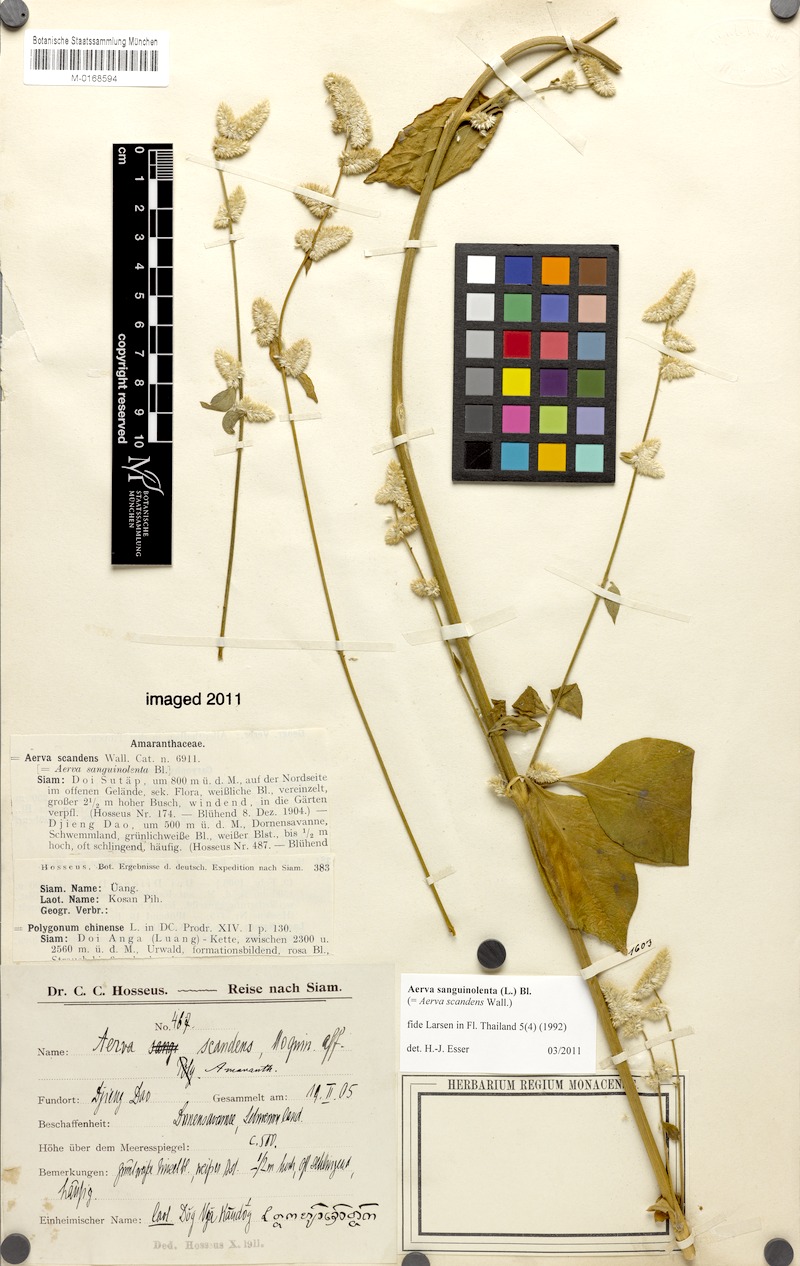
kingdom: Plantae
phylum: Tracheophyta
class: Magnoliopsida
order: Caryophyllales
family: Amaranthaceae
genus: Ouret
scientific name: Ouret sanguinolenta
